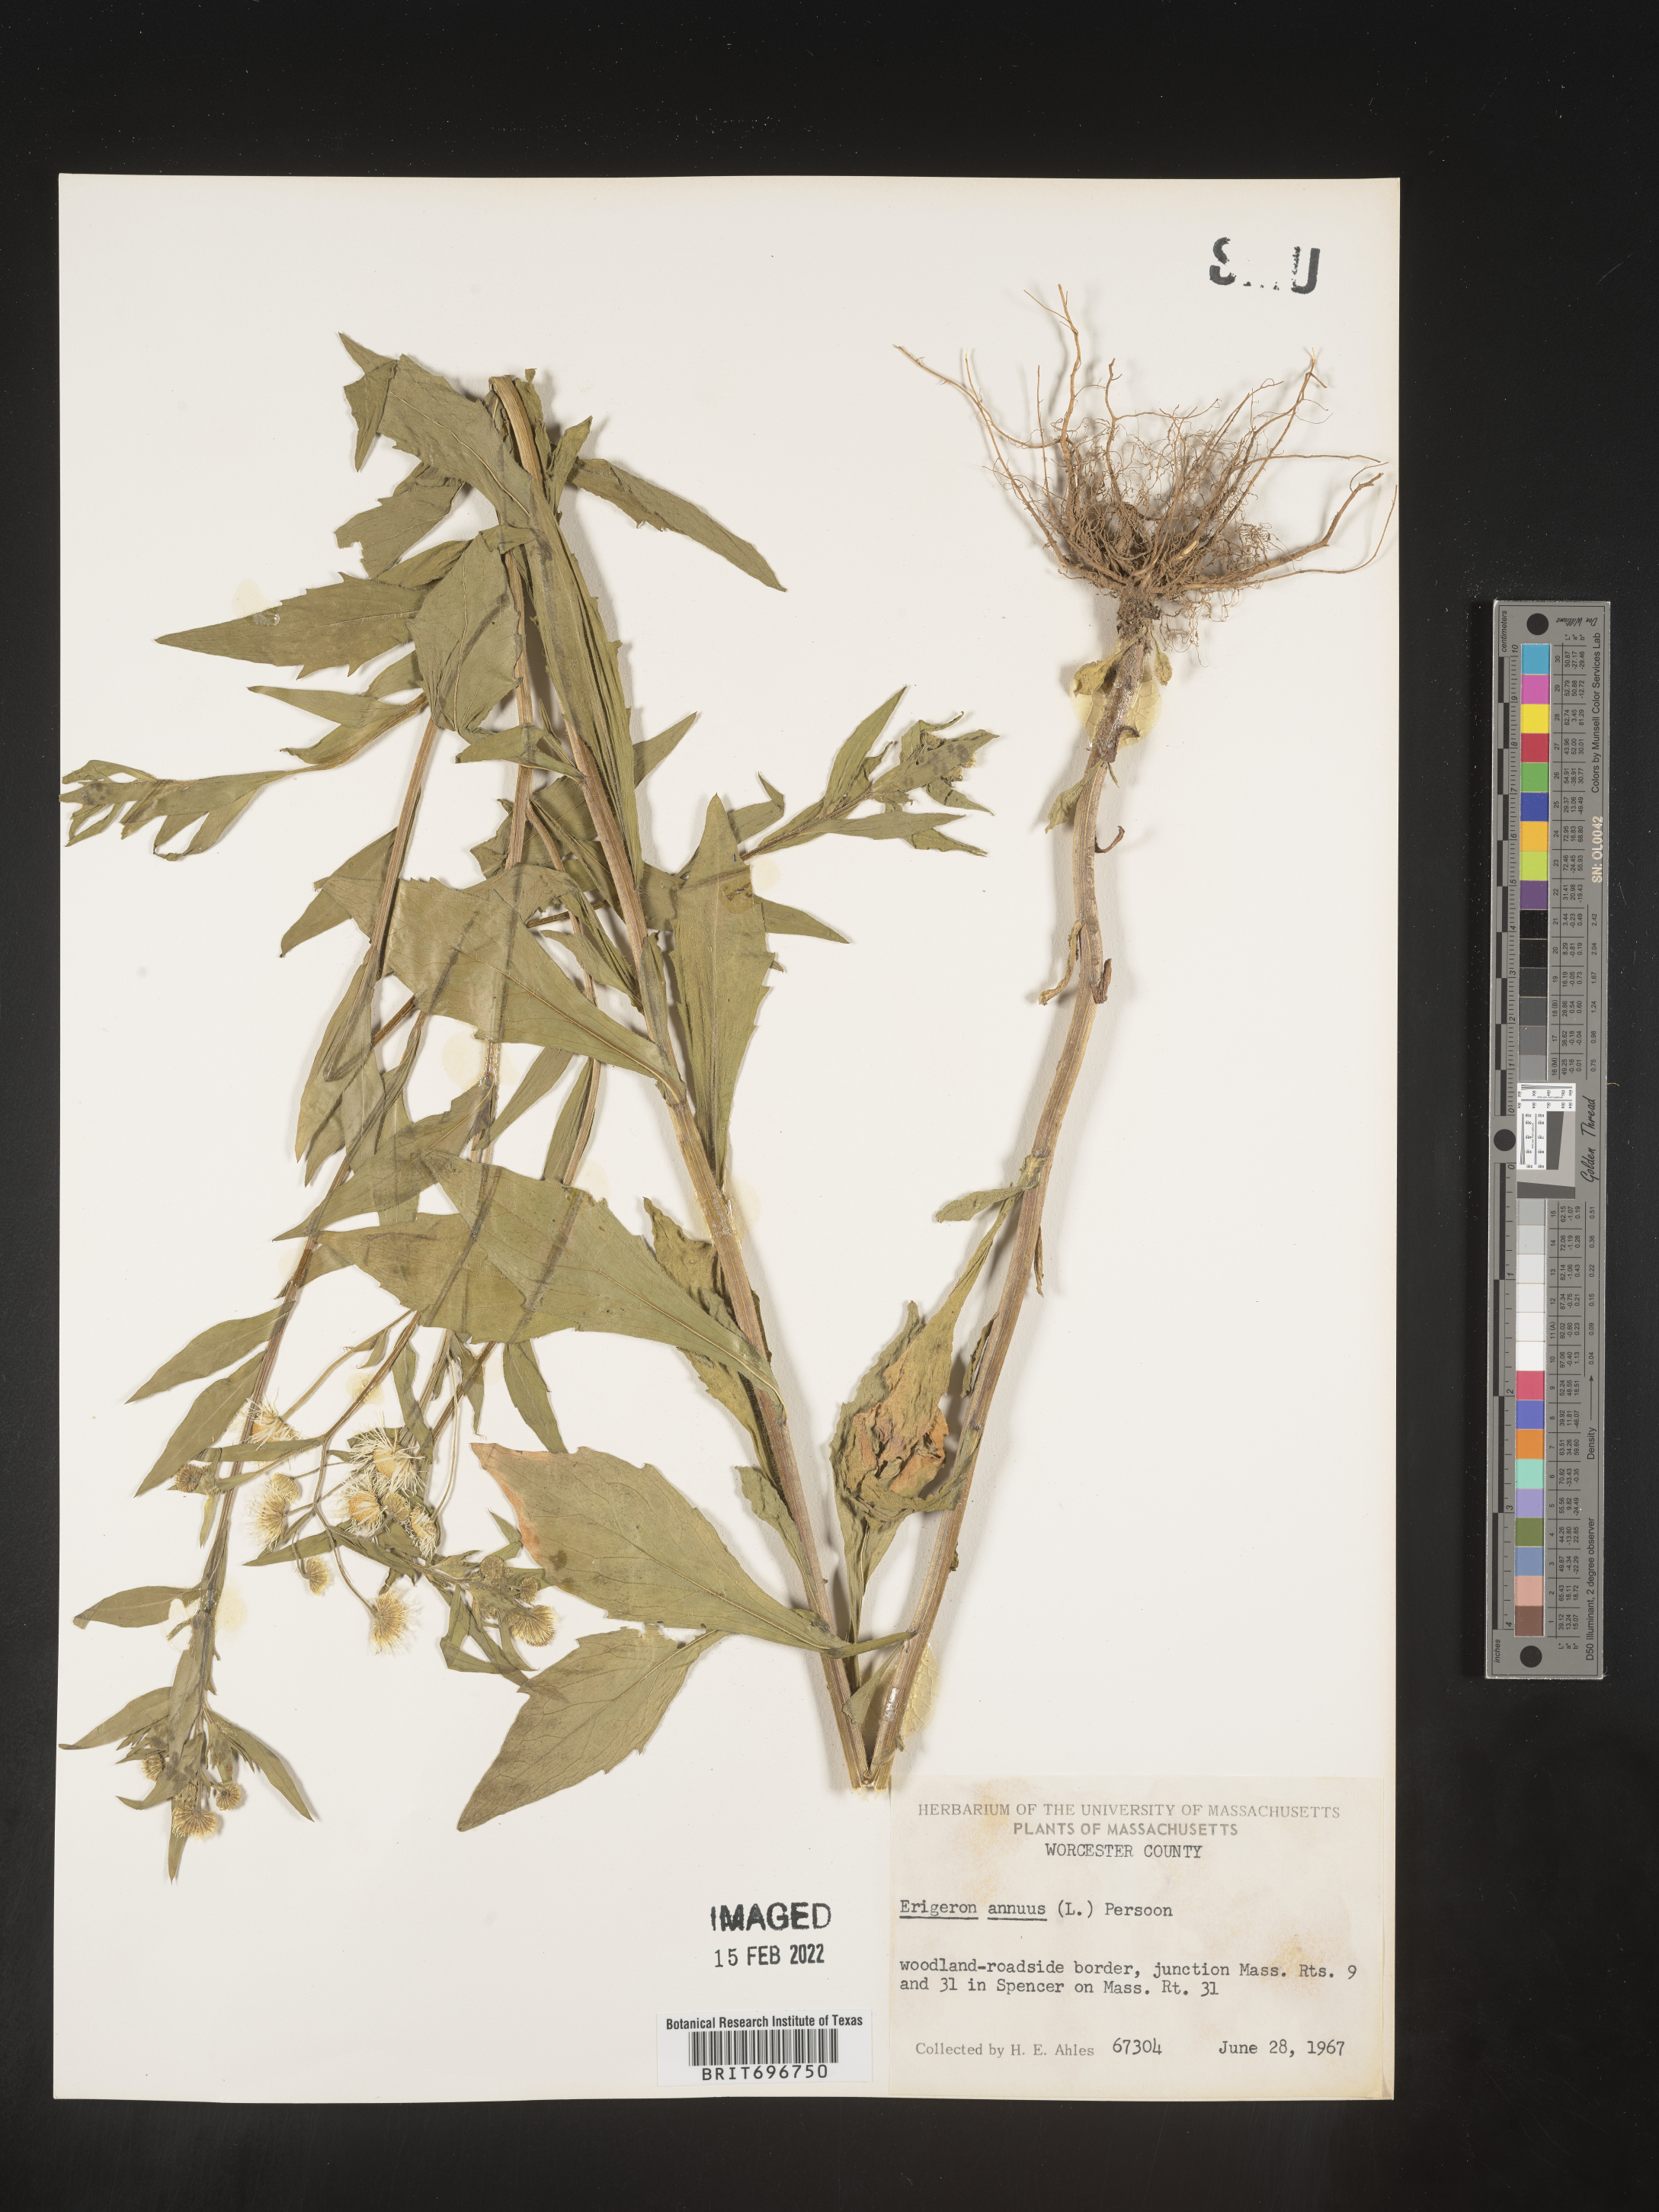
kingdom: Plantae
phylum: Tracheophyta
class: Magnoliopsida
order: Asterales
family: Asteraceae
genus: Erigeron
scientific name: Erigeron annuus
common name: Tall fleabane
